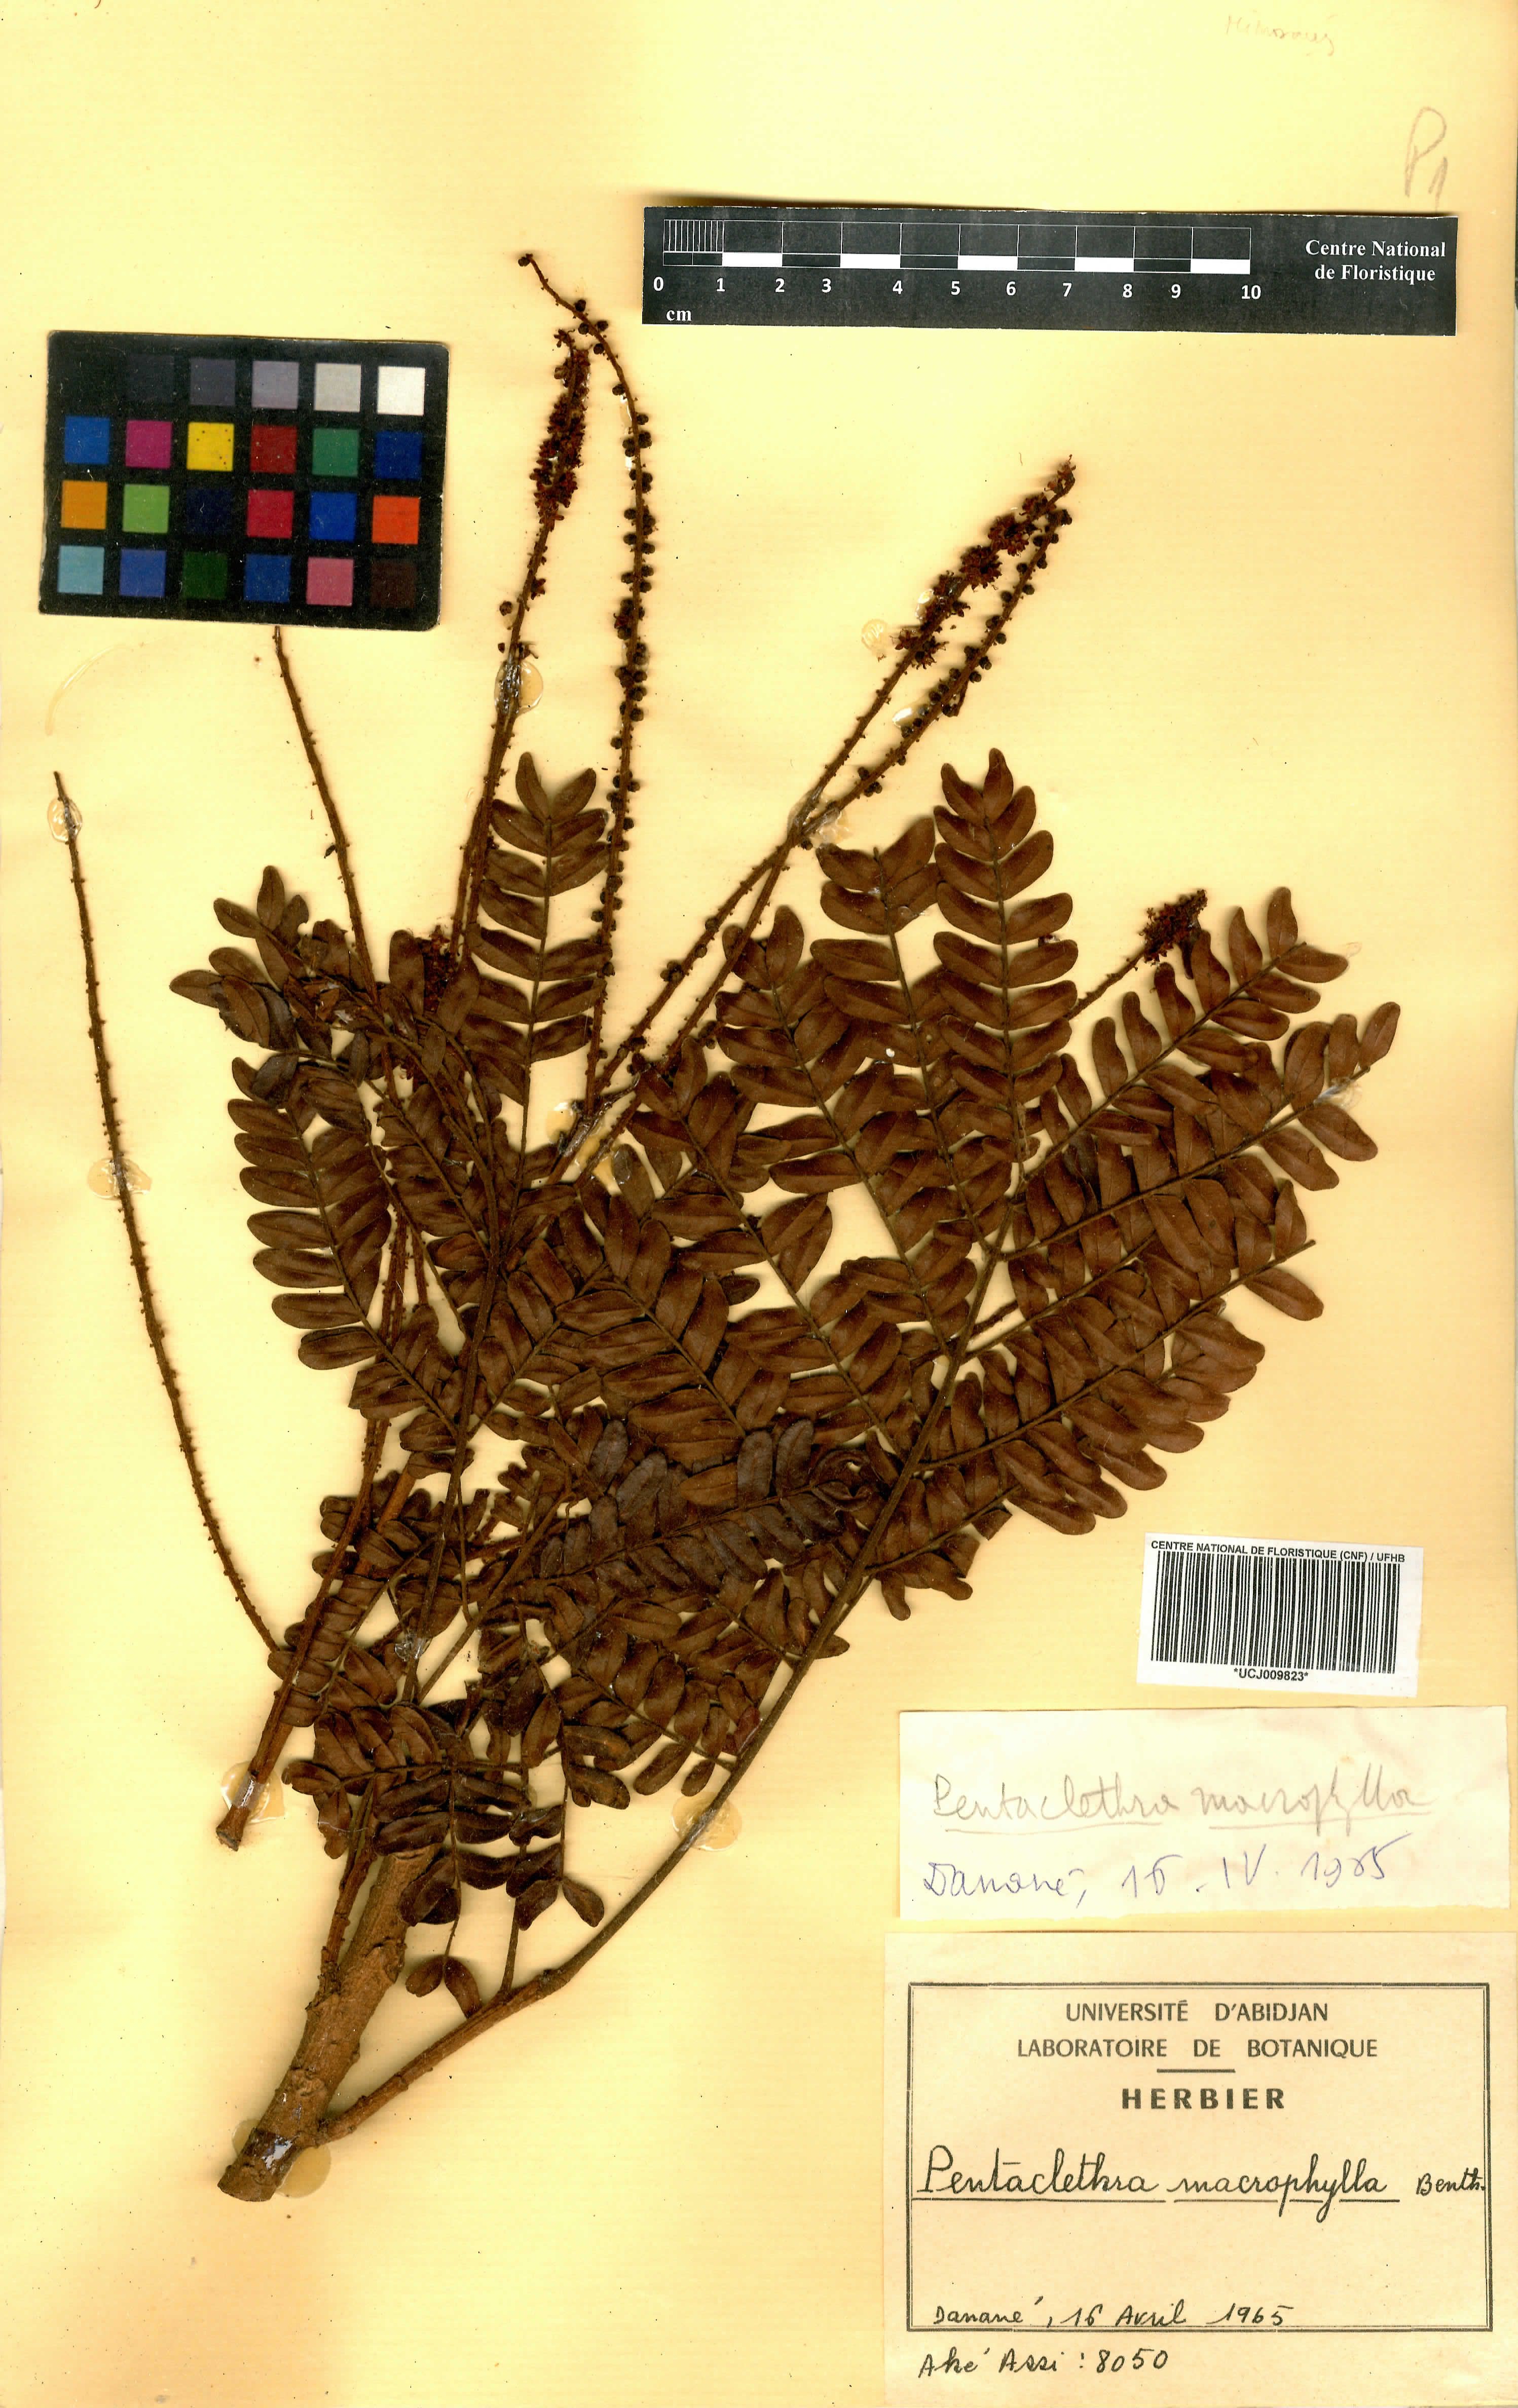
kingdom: Plantae
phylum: Tracheophyta
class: Magnoliopsida
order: Fabales
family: Fabaceae
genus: Pentaclethra
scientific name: Pentaclethra macrophylla
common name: African oil bean
